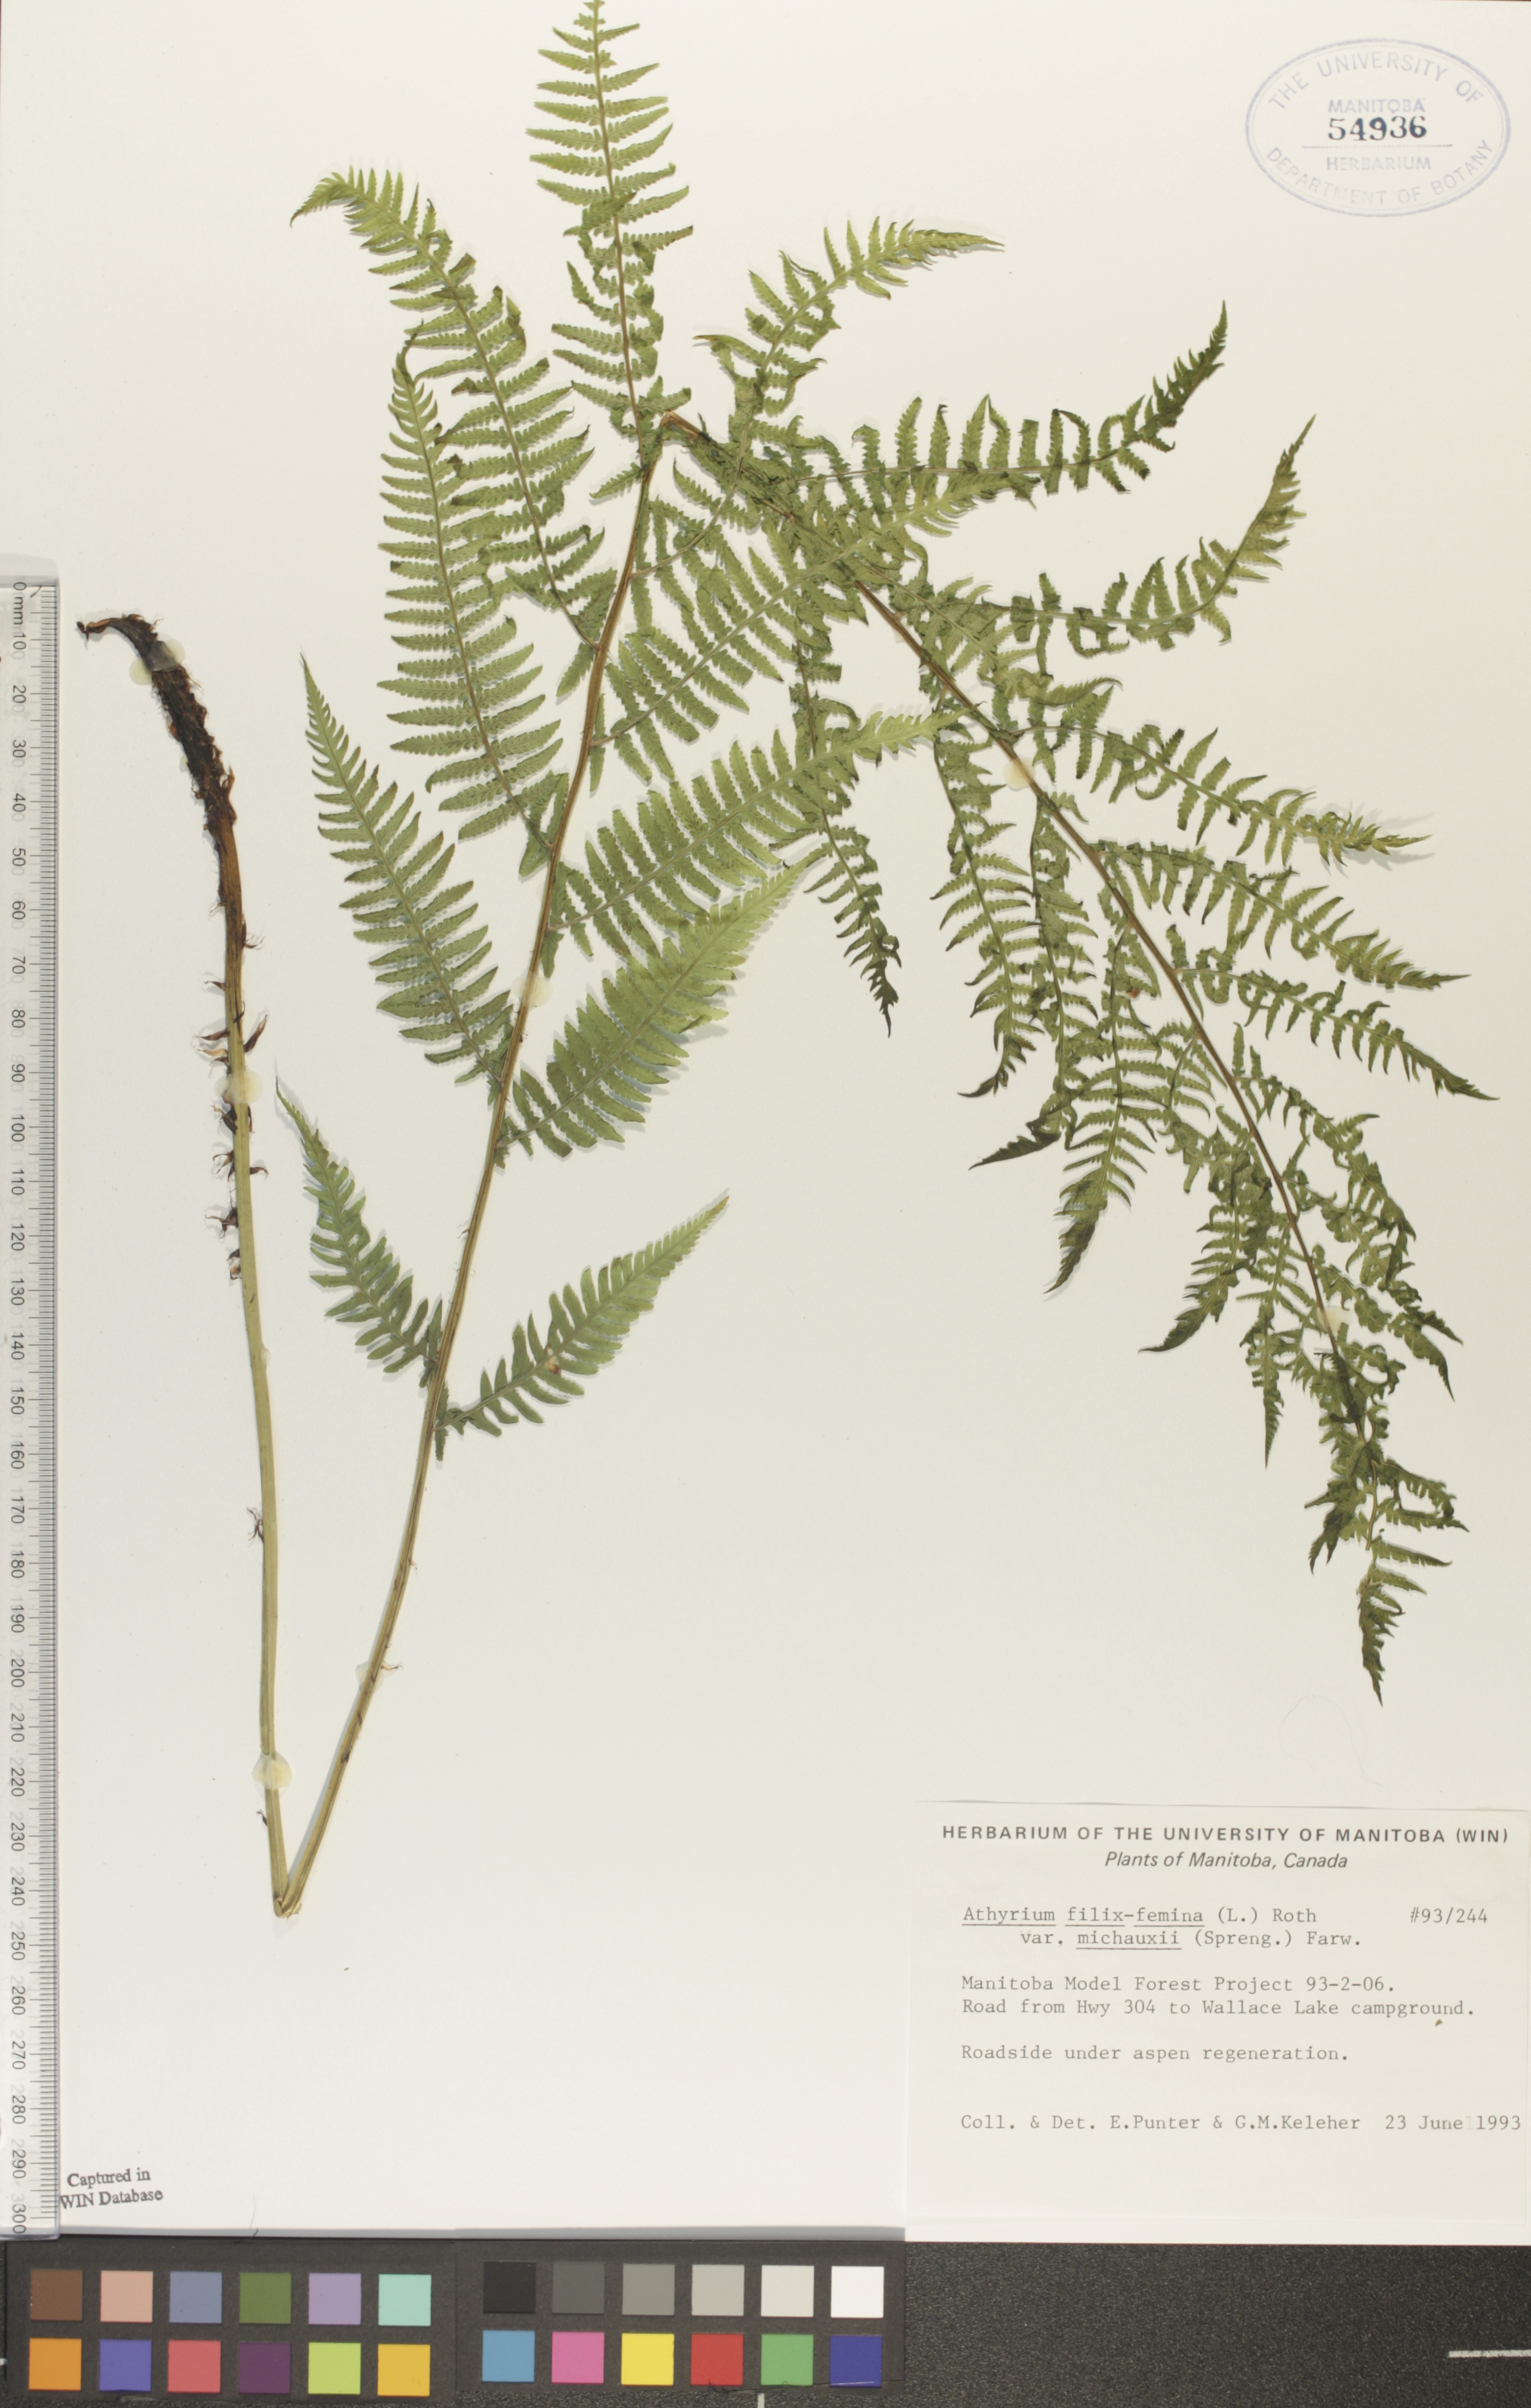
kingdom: Plantae
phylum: Tracheophyta
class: Polypodiopsida
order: Polypodiales
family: Athyriaceae
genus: Athyrium
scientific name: Athyrium angustum
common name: Northern lady fern
